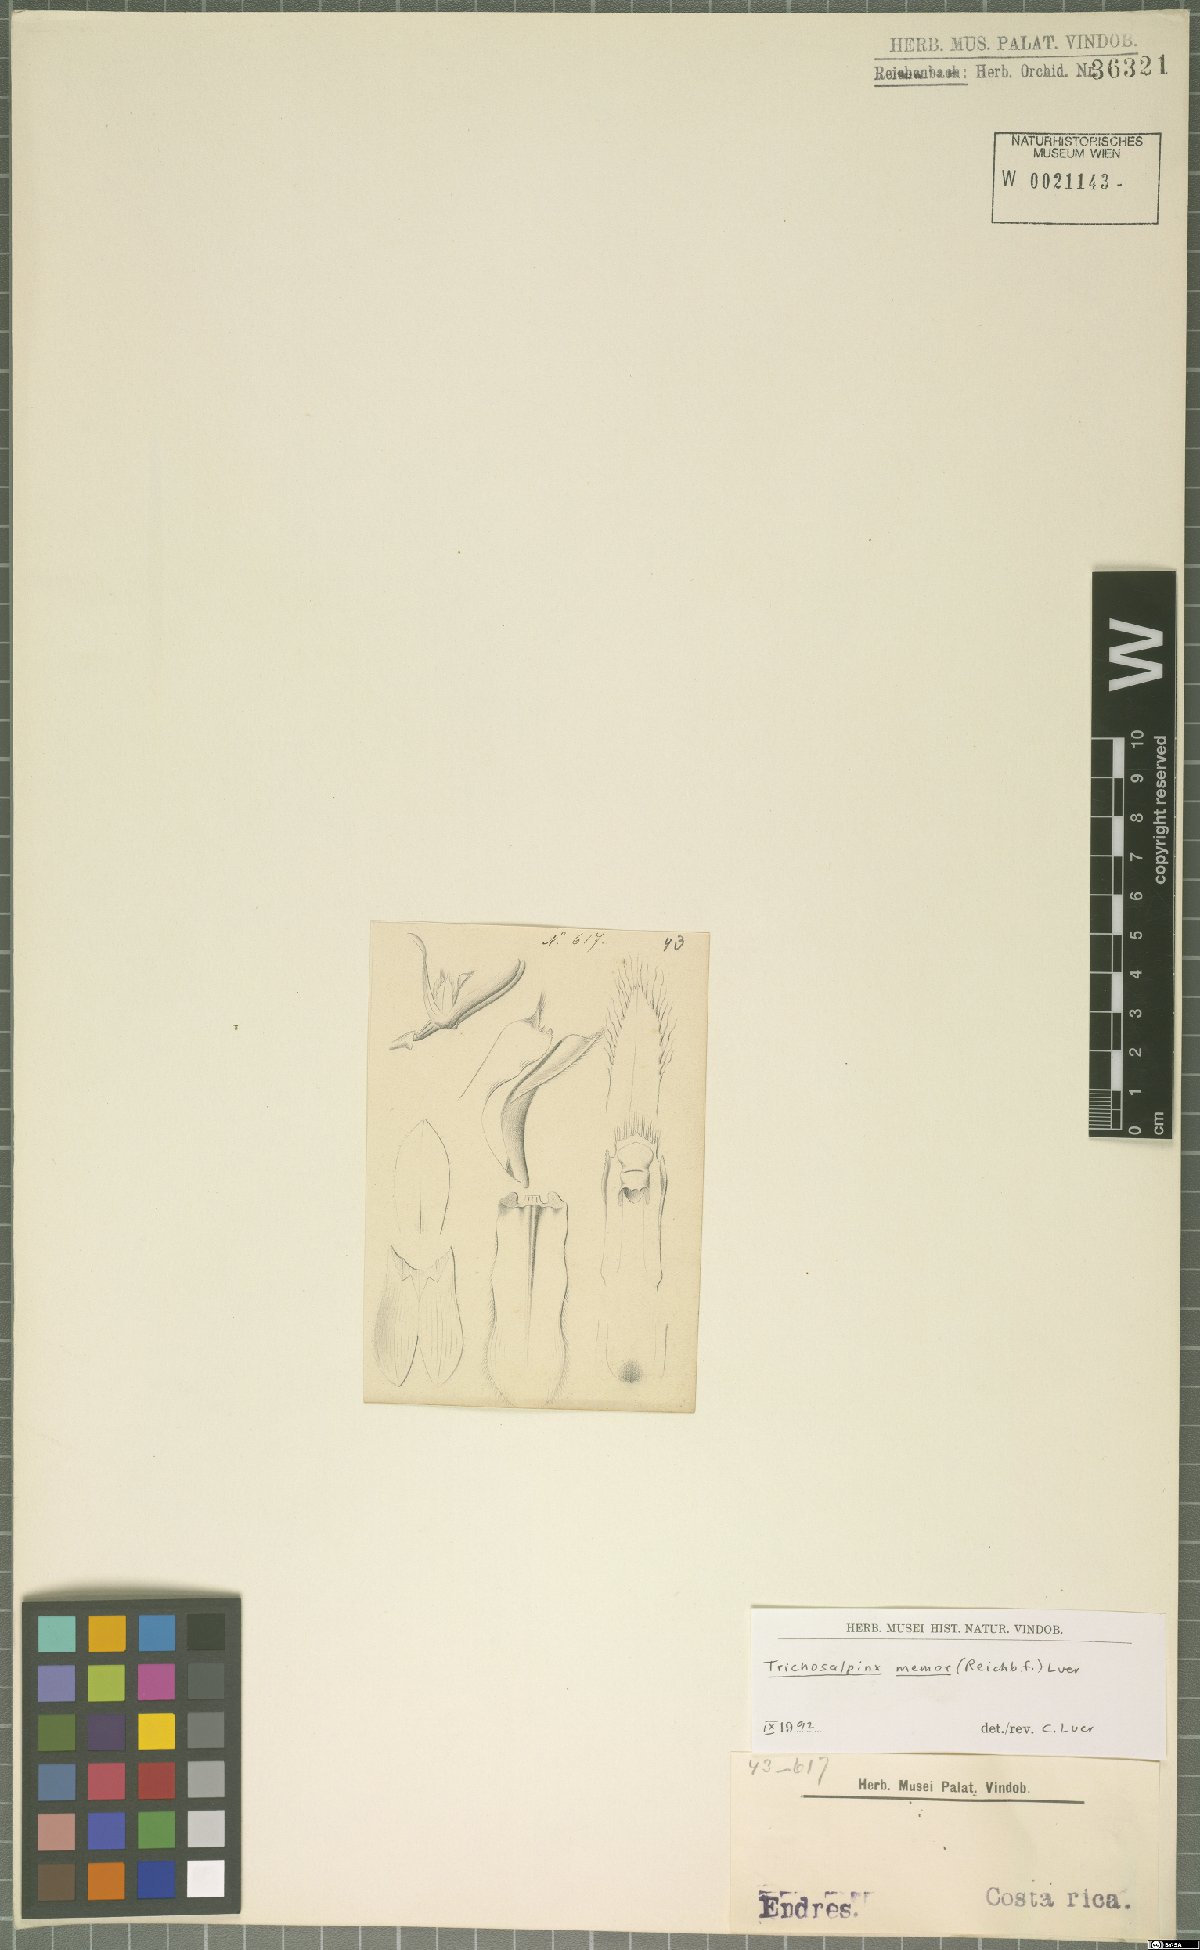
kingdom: Plantae
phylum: Tracheophyta
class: Liliopsida
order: Asparagales
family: Orchidaceae
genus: Trichosalpinx
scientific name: Trichosalpinx memor
